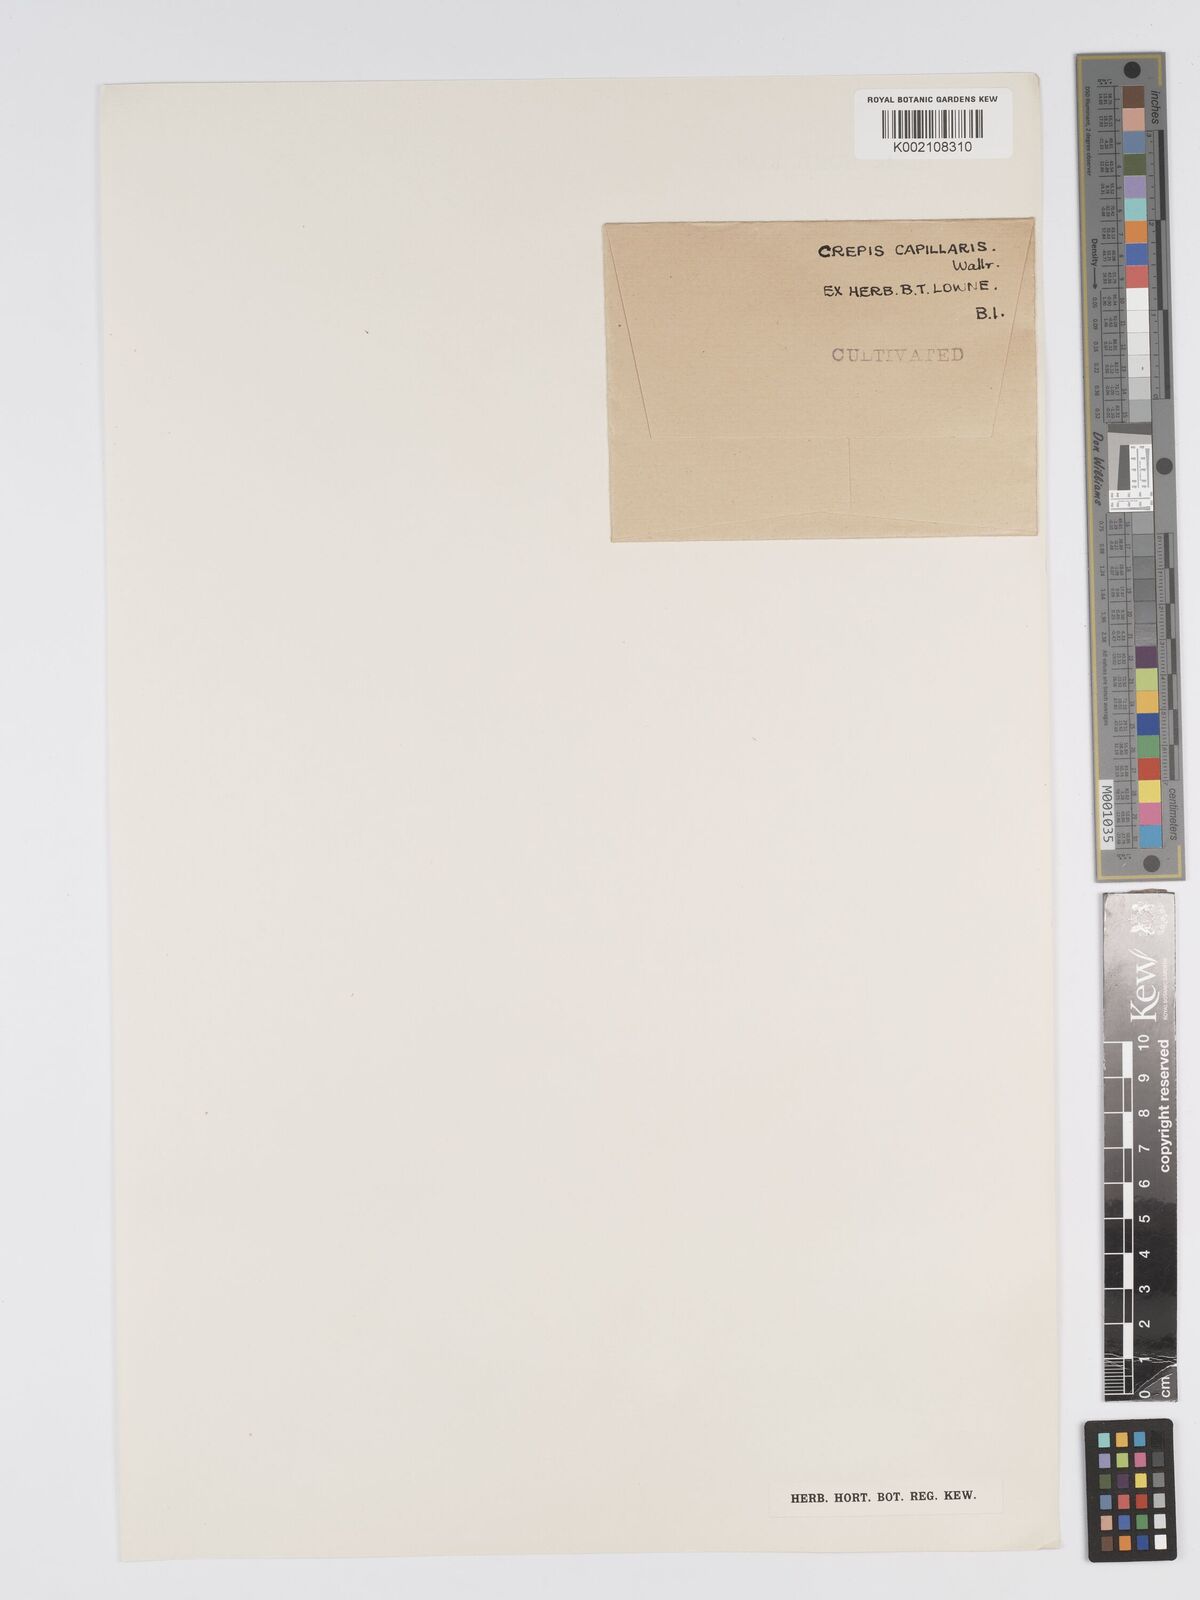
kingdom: Plantae
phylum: Tracheophyta
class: Magnoliopsida
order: Asterales
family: Asteraceae
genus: Crepis
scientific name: Crepis capillaris
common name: Smooth hawksbeard
